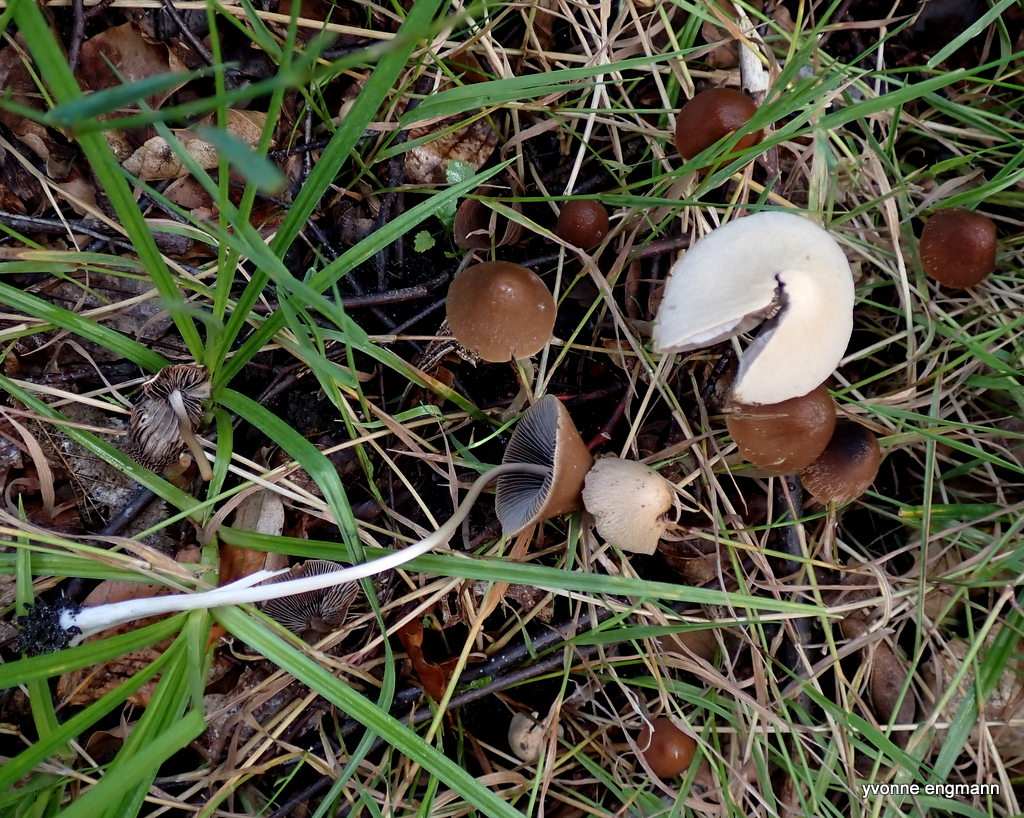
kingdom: Fungi
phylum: Basidiomycota
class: Agaricomycetes
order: Agaricales
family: Psathyrellaceae
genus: Parasola
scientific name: Parasola conopilea
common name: kegle-hjulhat
